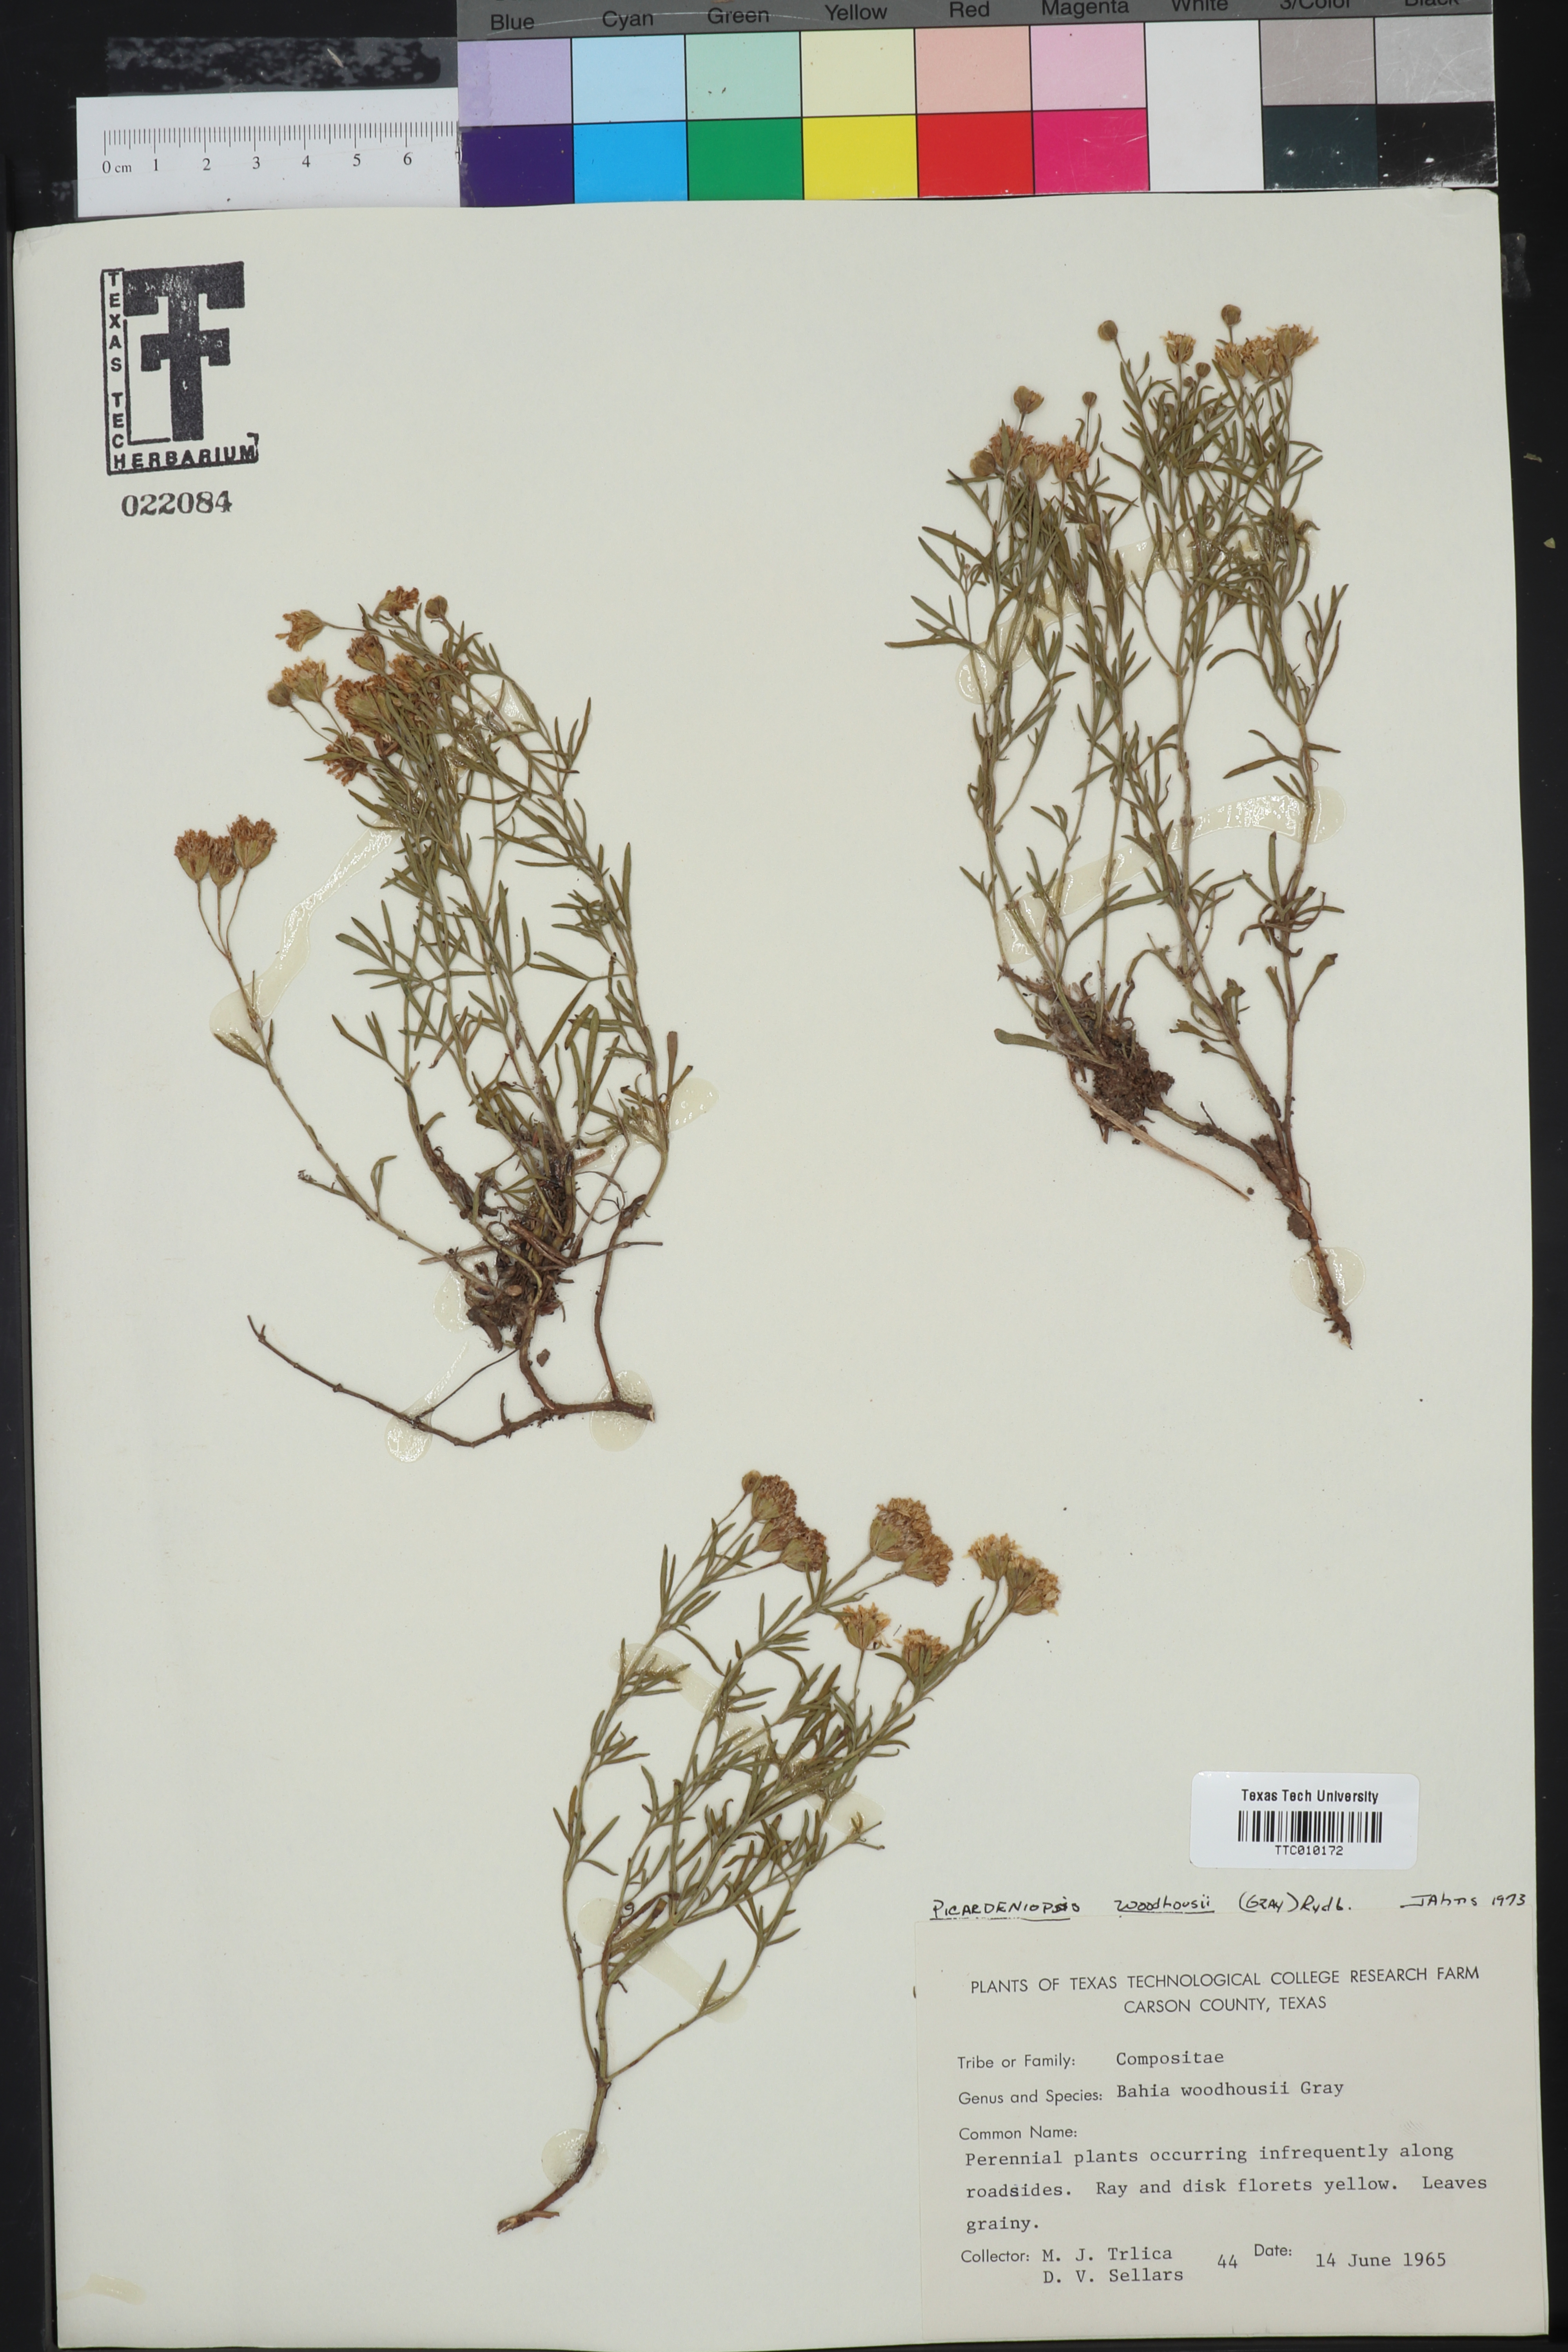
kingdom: Plantae
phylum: Tracheophyta
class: Magnoliopsida
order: Asterales
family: Asteraceae
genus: Picradeniopsis
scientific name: Picradeniopsis woodhousei
